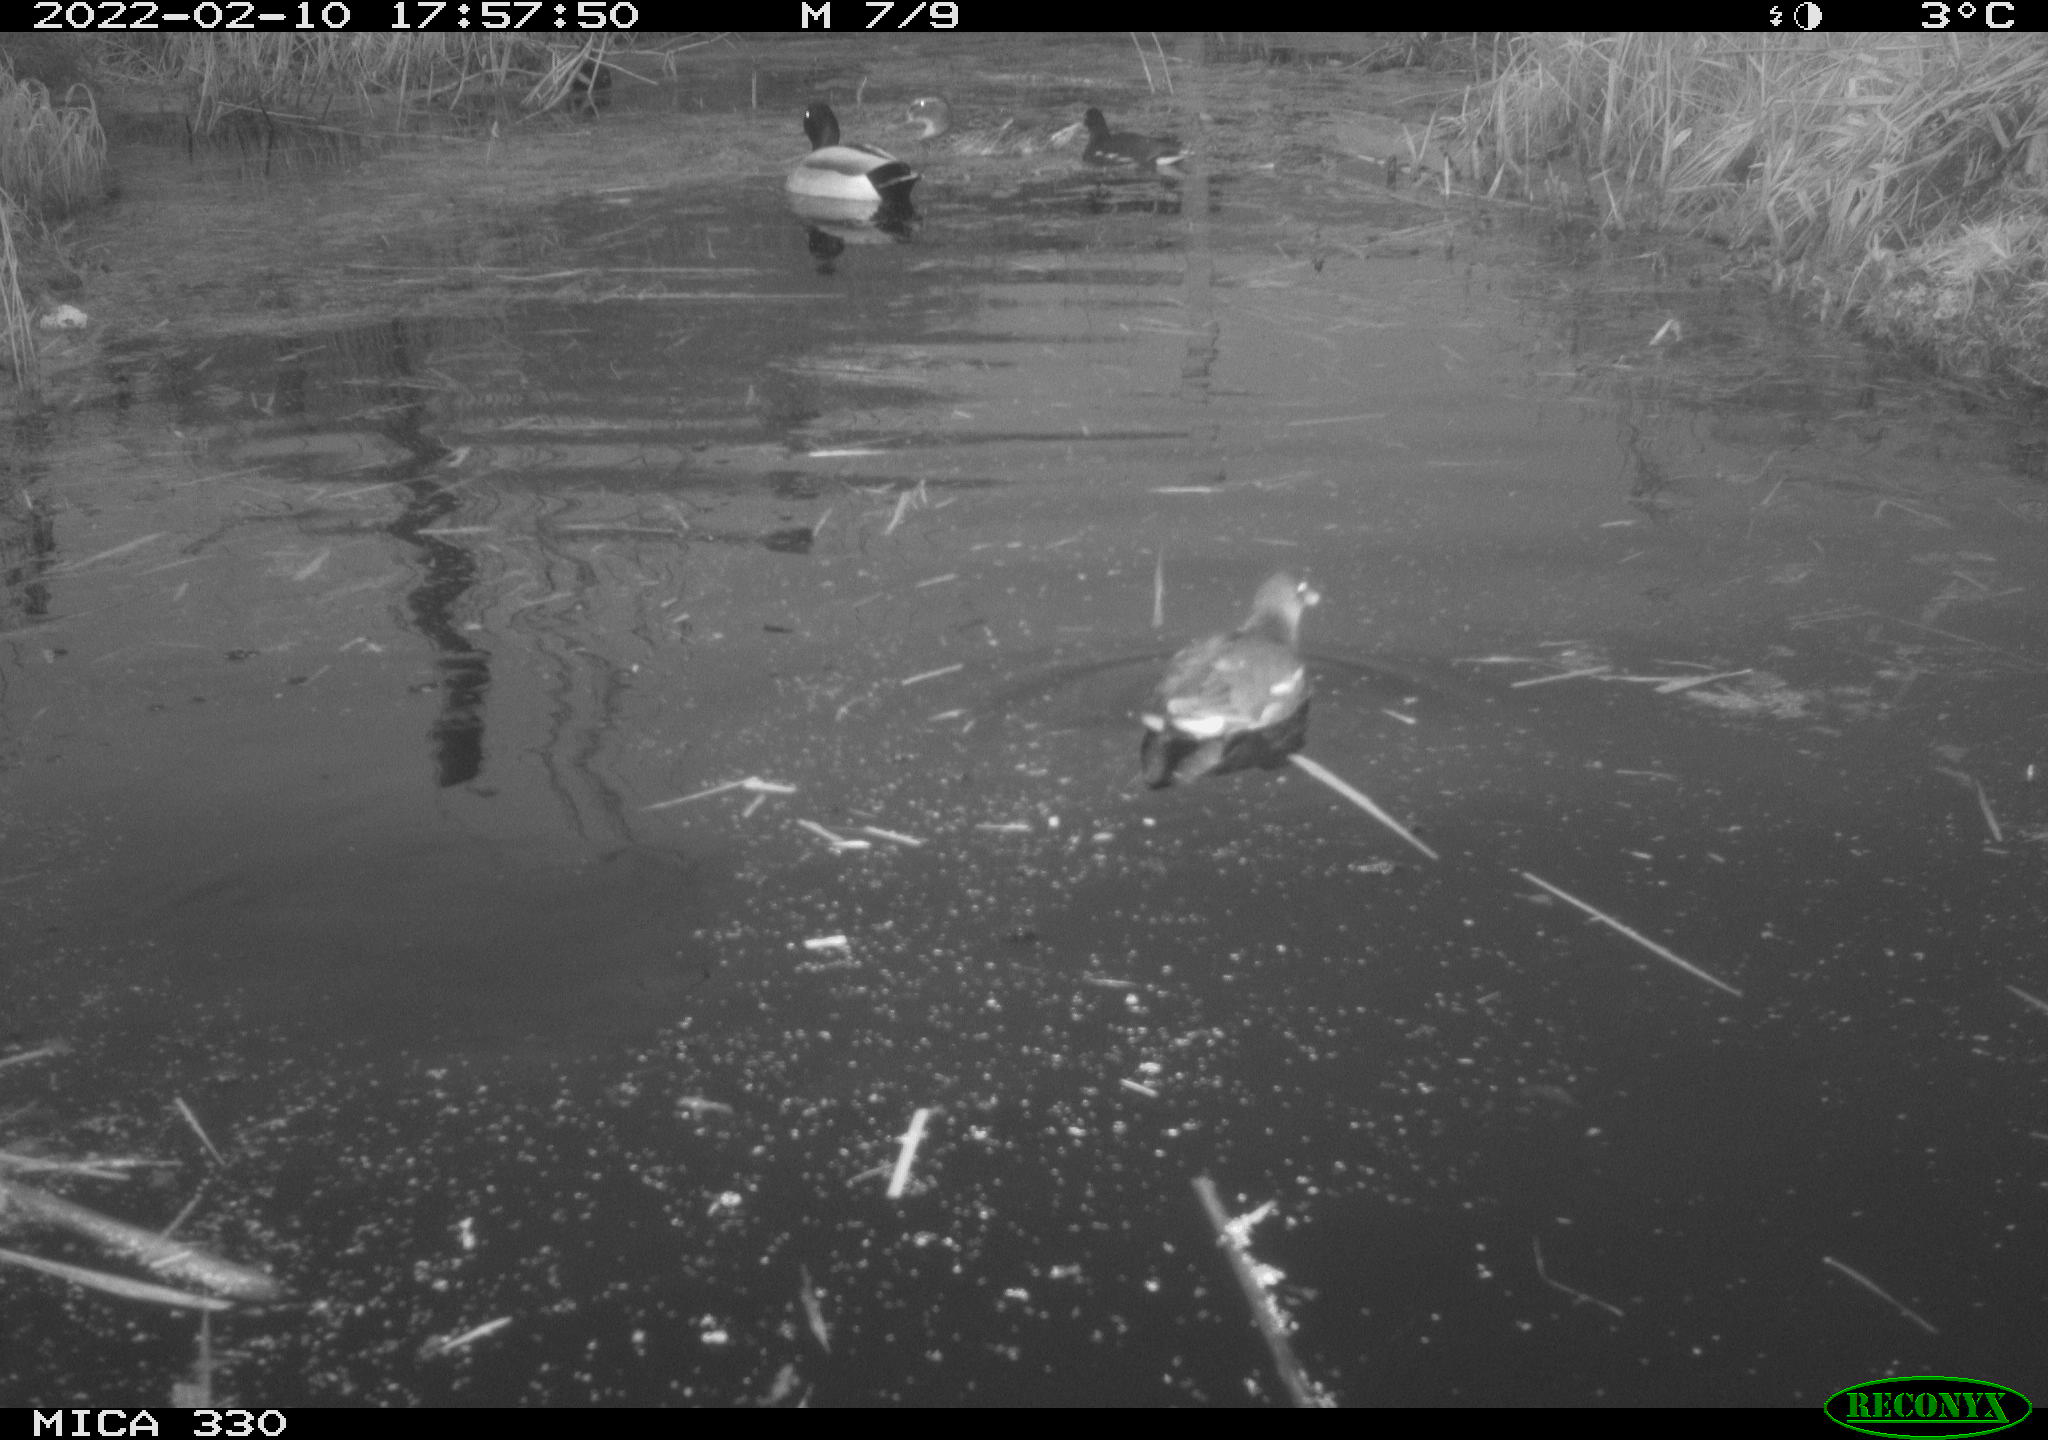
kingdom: Animalia
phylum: Chordata
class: Aves
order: Anseriformes
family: Anatidae
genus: Anas
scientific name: Anas platyrhynchos
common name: Mallard
